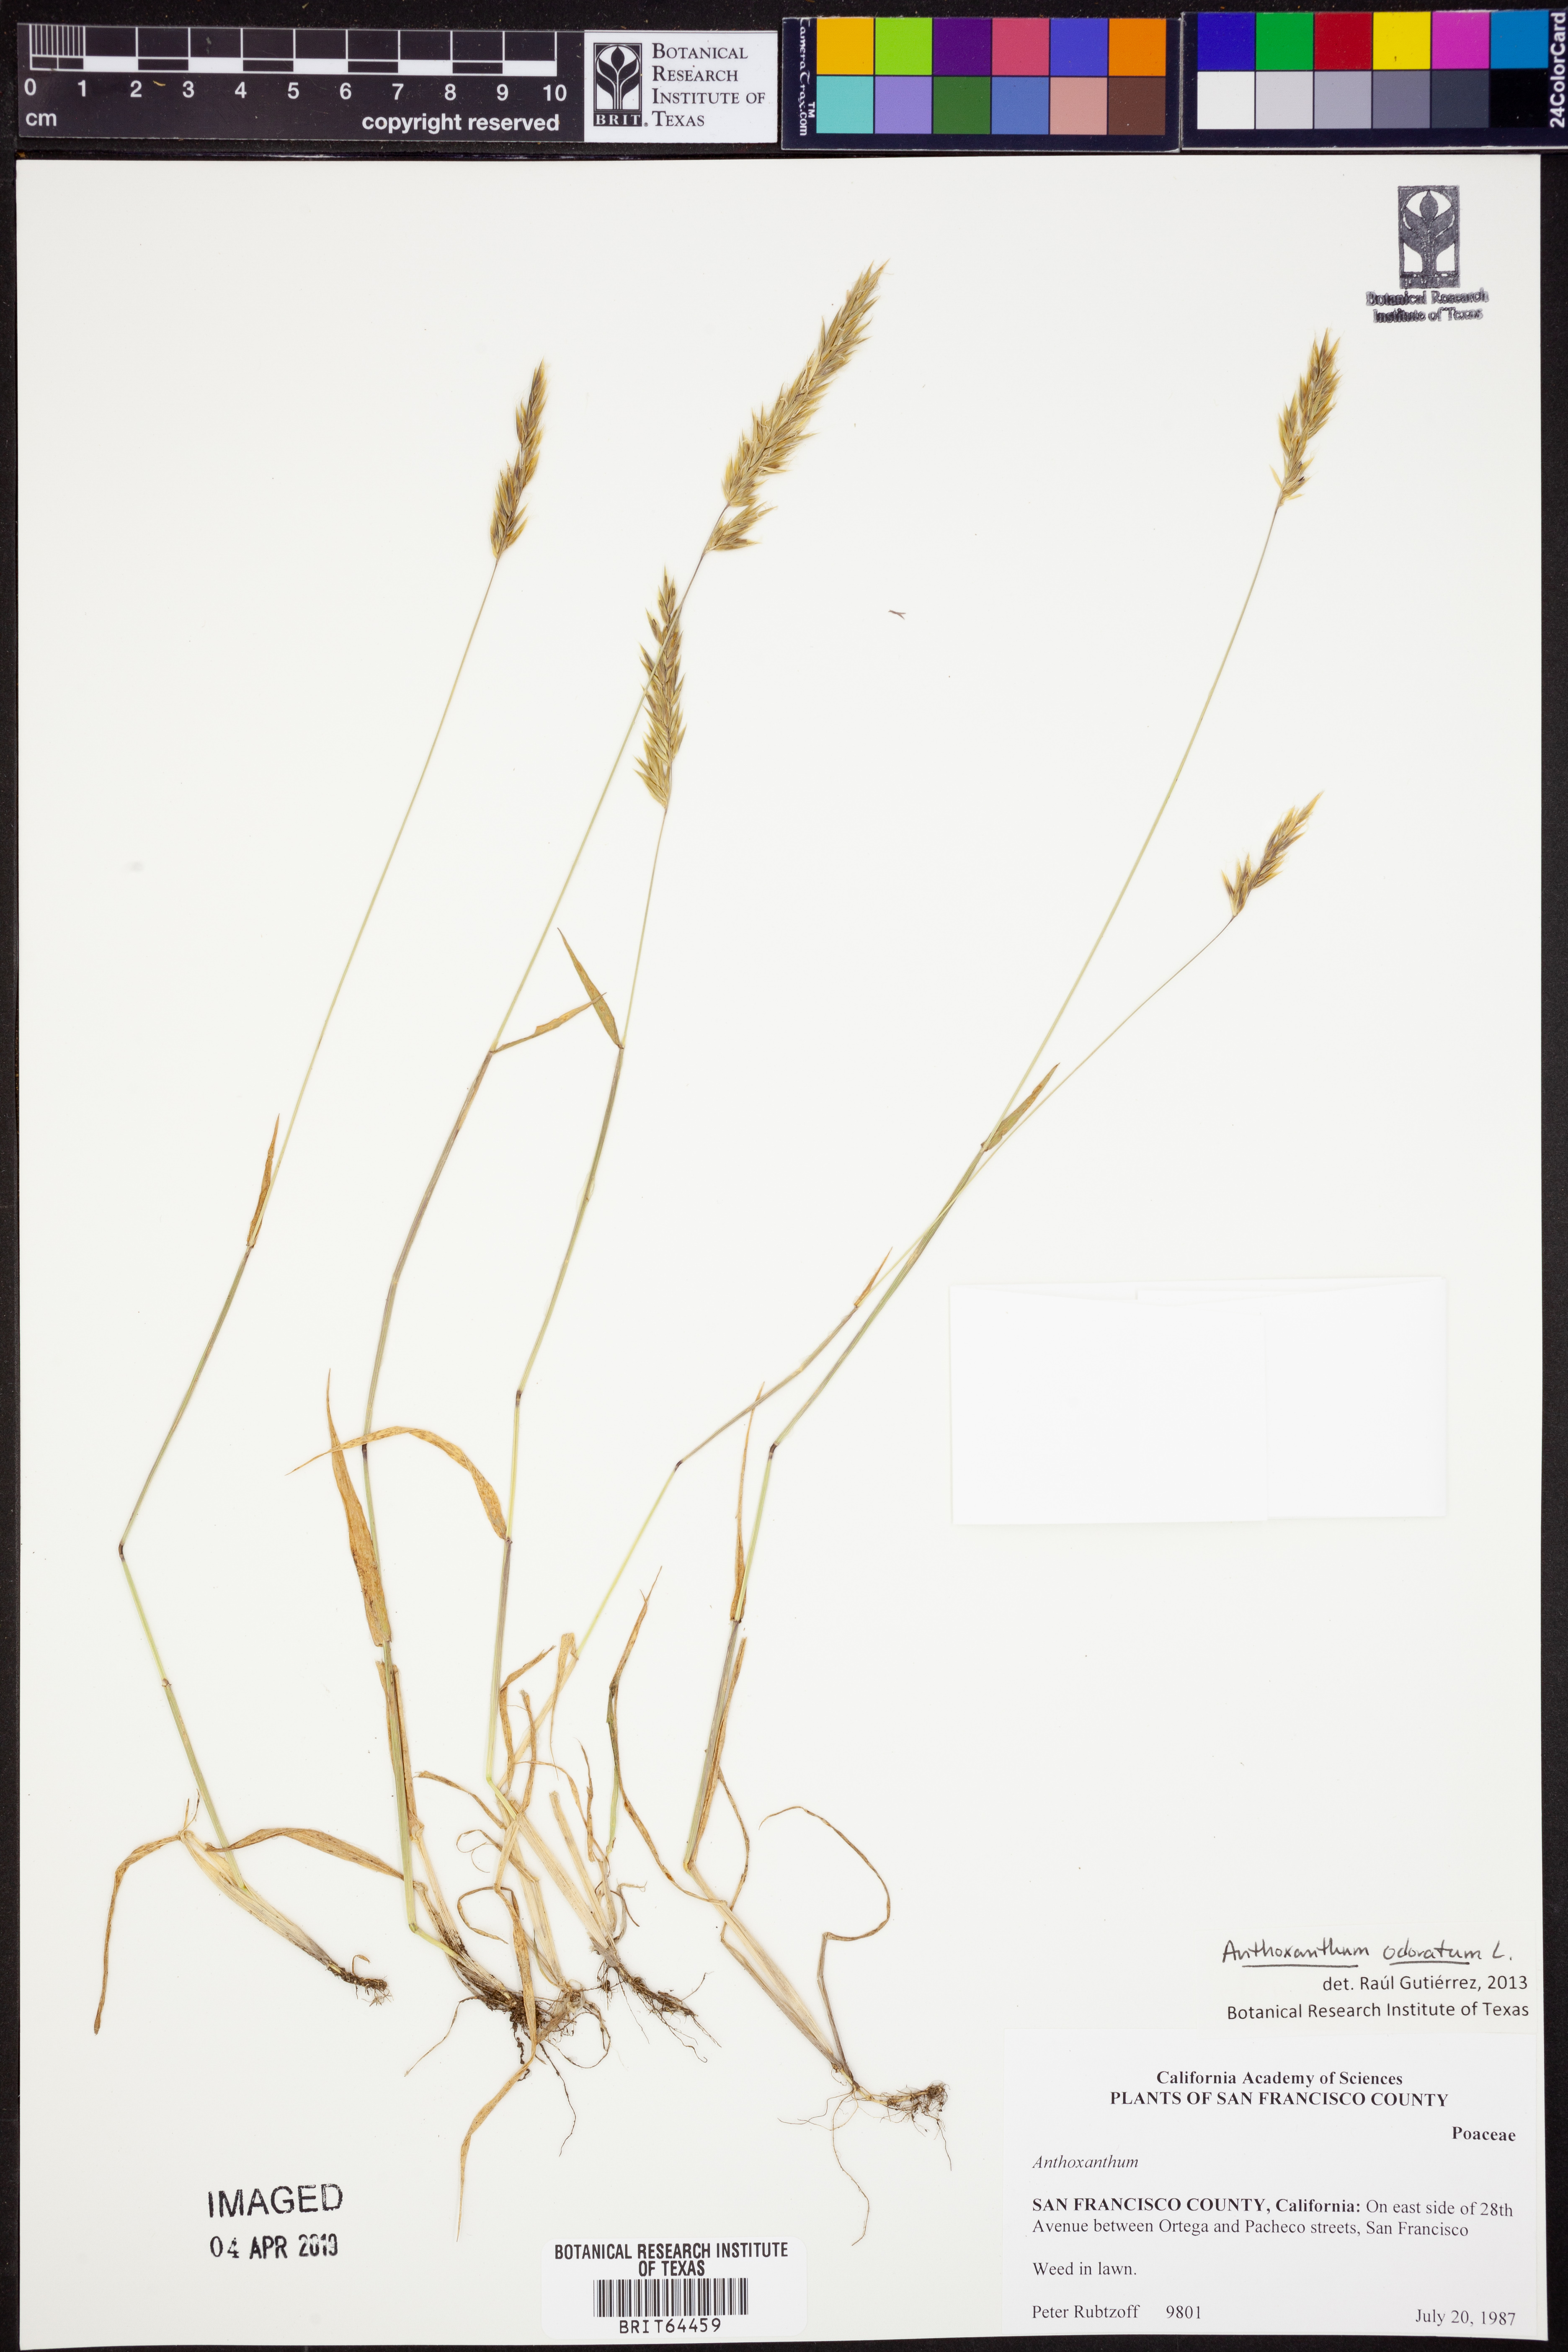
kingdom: Plantae
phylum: Tracheophyta
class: Liliopsida
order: Poales
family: Poaceae
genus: Anthoxanthum
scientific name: Anthoxanthum odoratum
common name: Sweet vernalgrass
